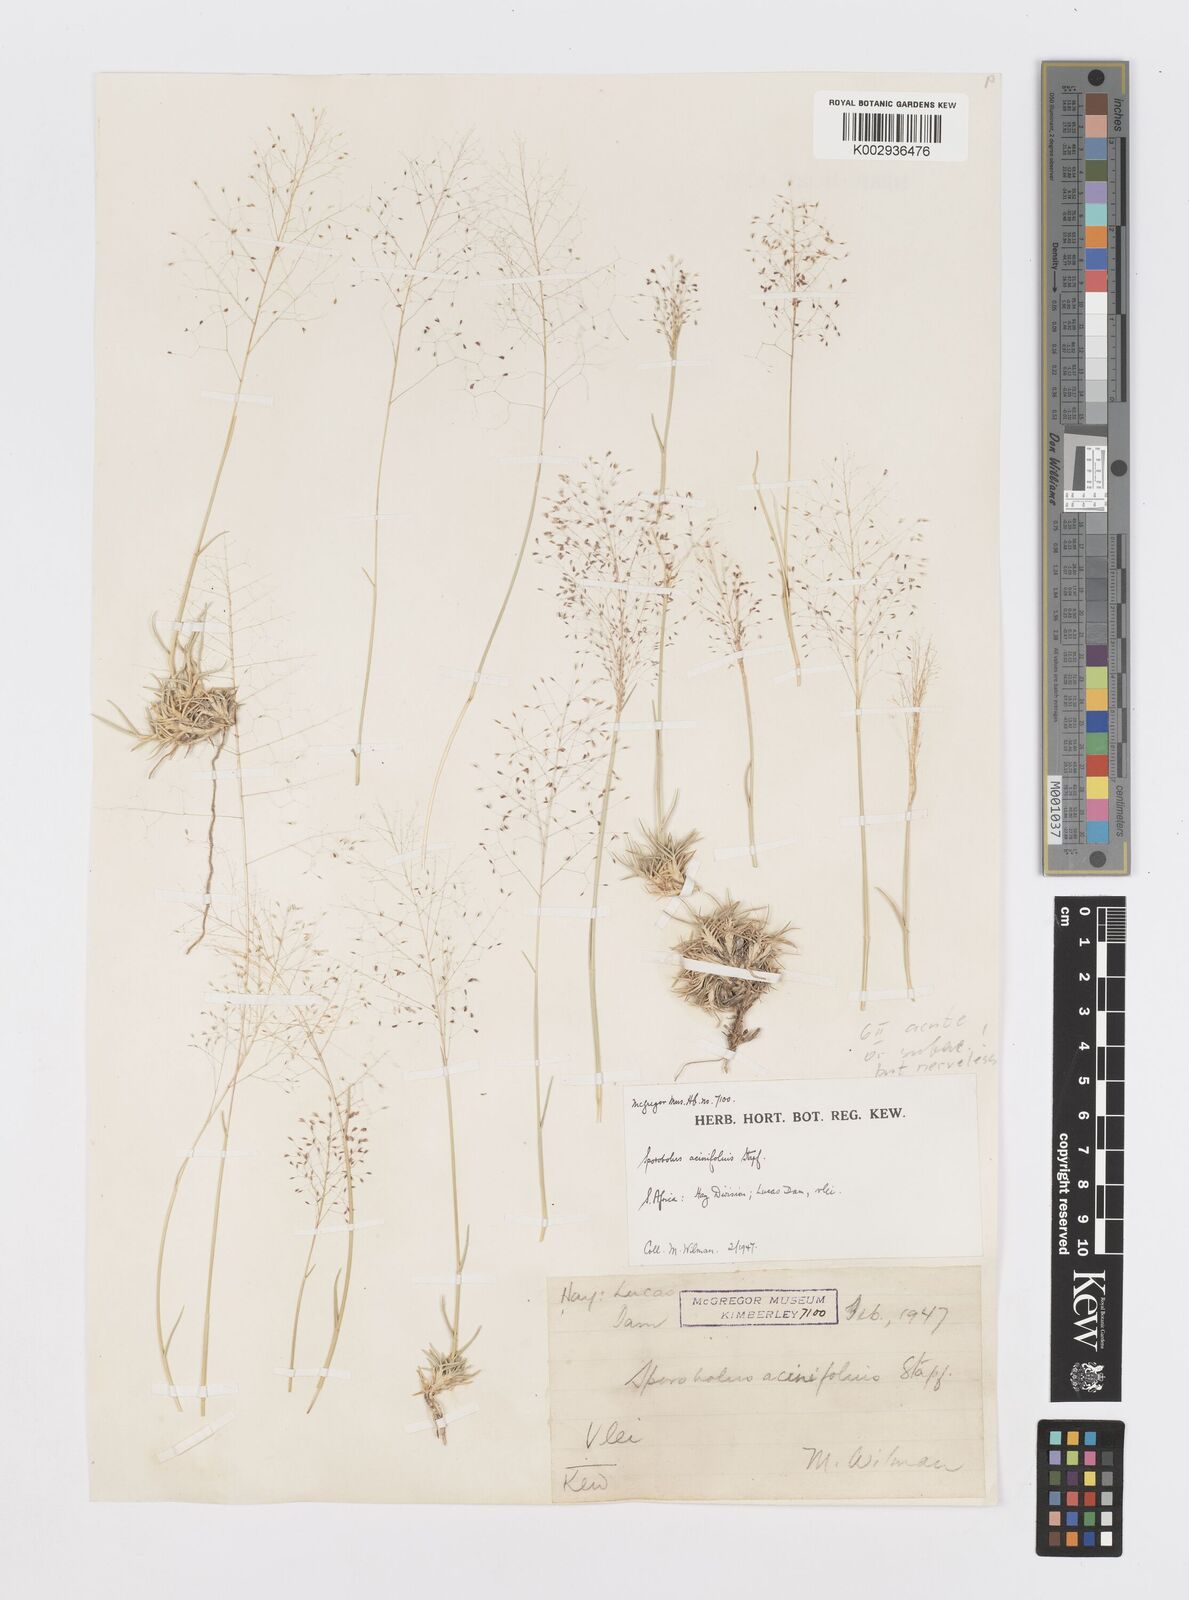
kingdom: Plantae
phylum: Tracheophyta
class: Liliopsida
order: Poales
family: Poaceae
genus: Sporobolus
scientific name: Sporobolus acinifolius
